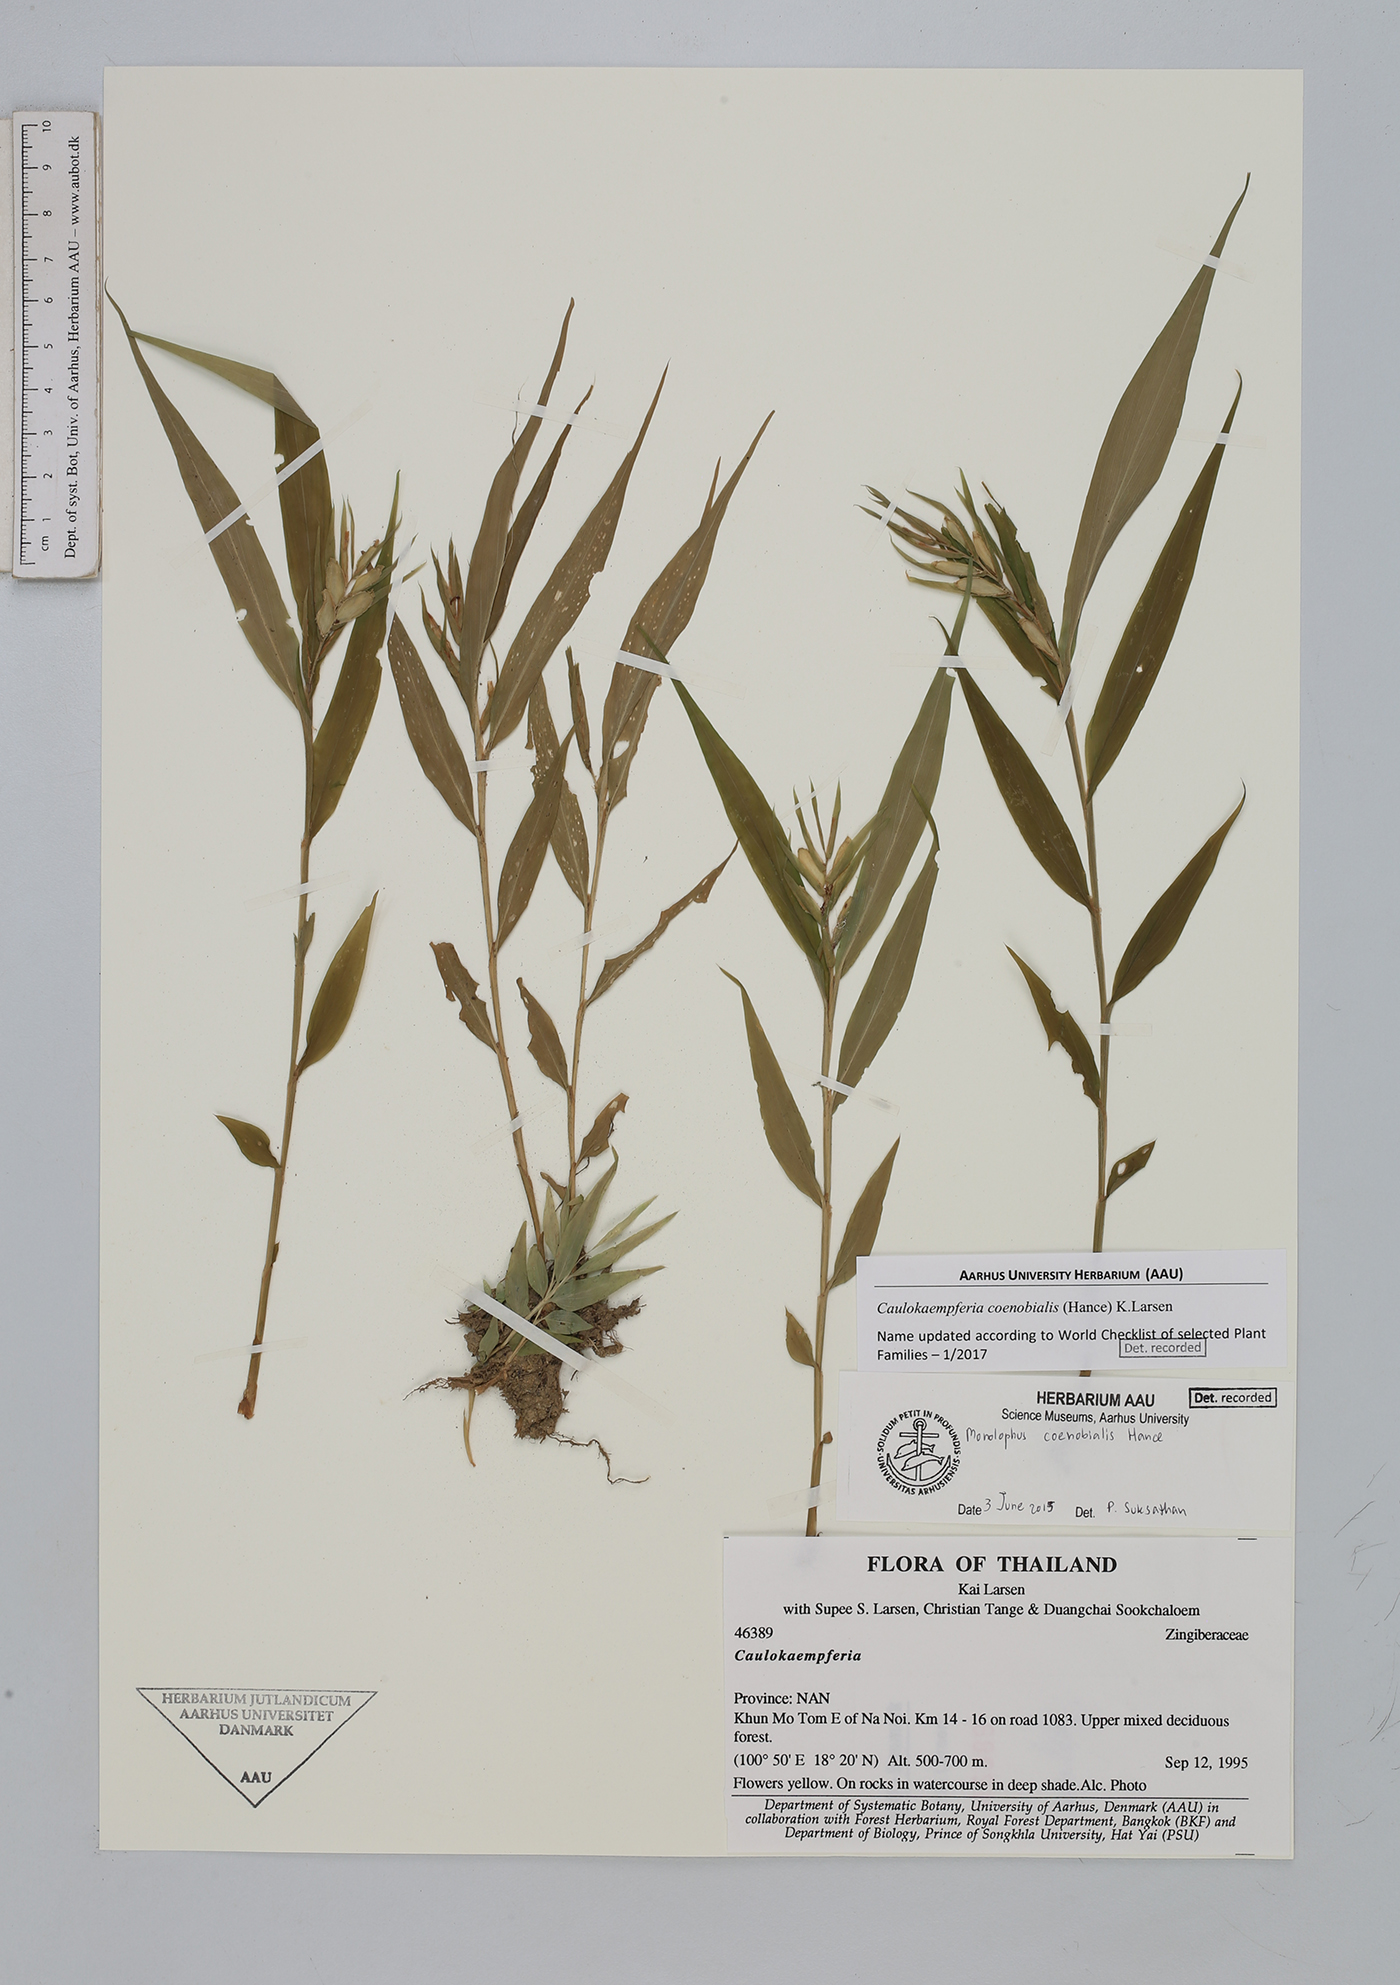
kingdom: Plantae
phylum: Tracheophyta
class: Liliopsida
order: Zingiberales
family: Zingiberaceae
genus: Caulokaempferia
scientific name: Caulokaempferia coenobialis
